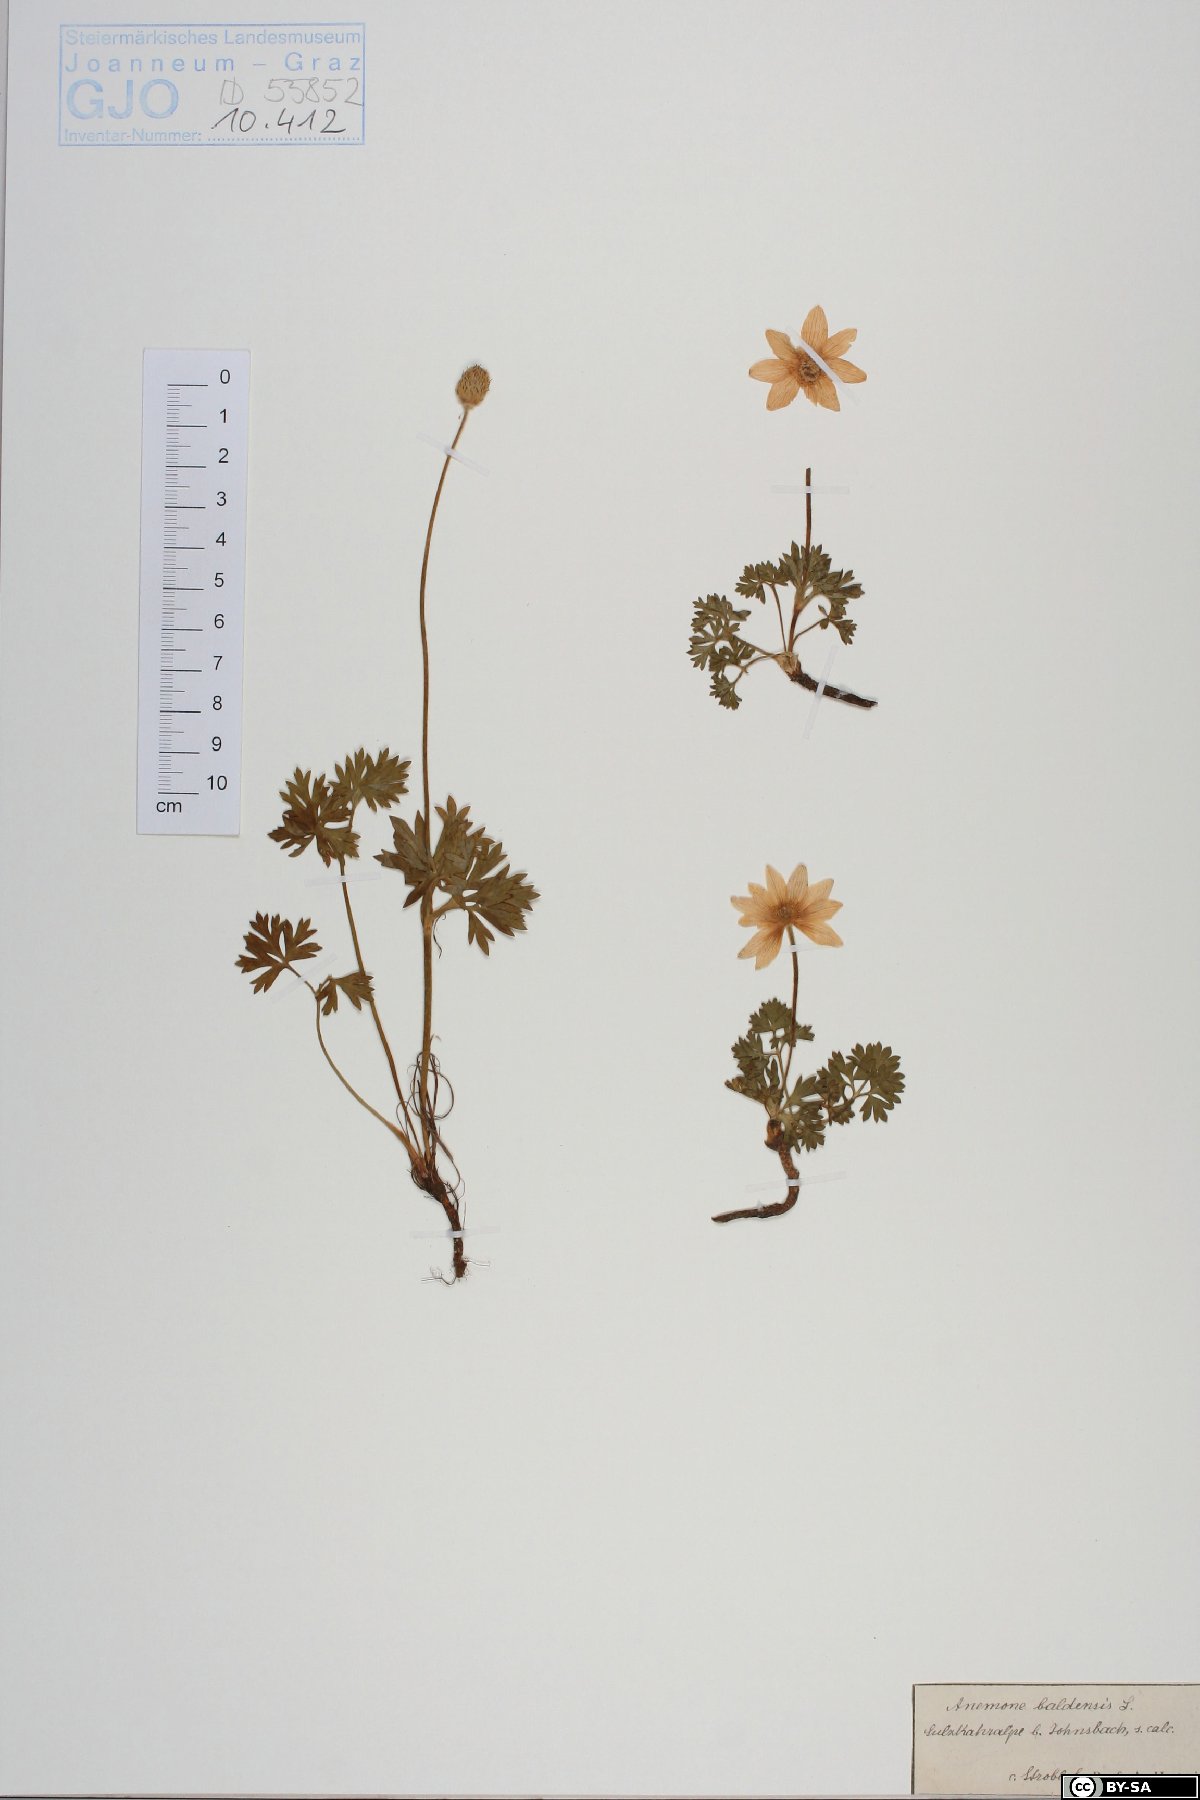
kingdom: Plantae
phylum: Tracheophyta
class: Magnoliopsida
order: Ranunculales
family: Ranunculaceae
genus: Anemone
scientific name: Anemone baldensis
